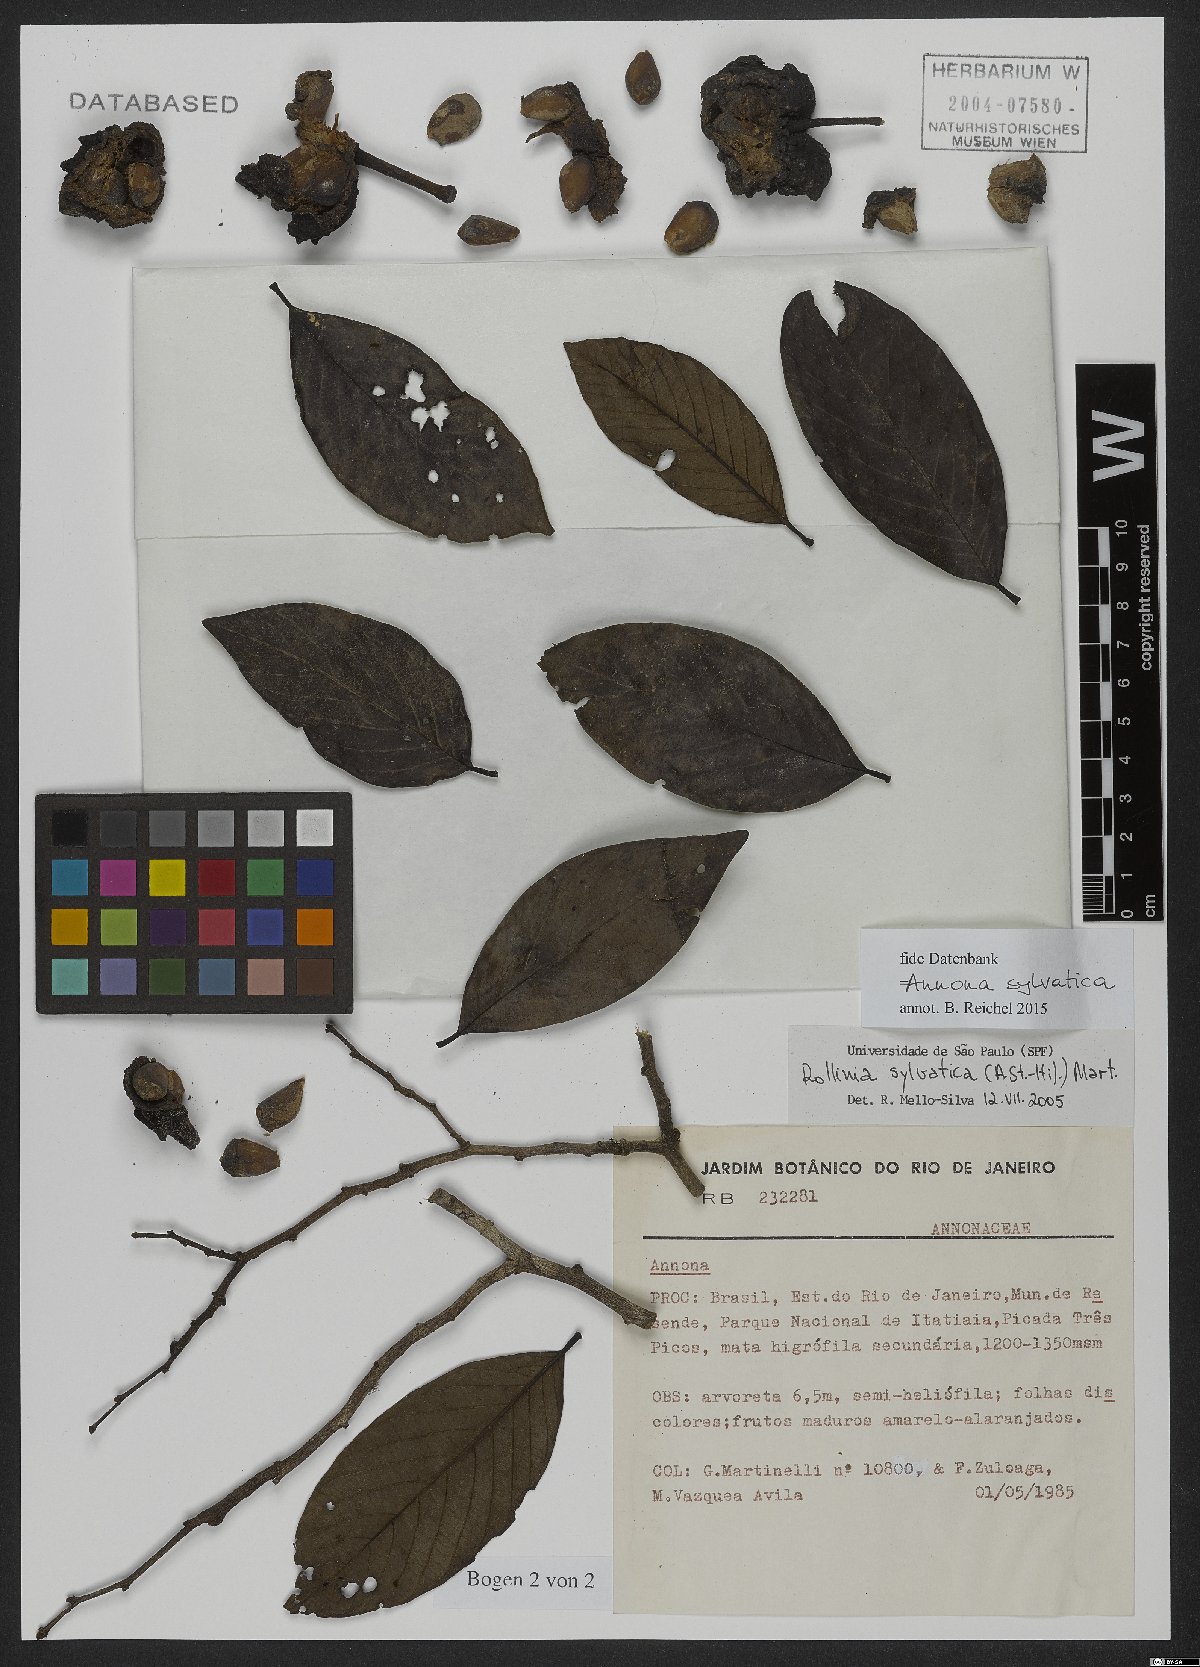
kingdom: Plantae
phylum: Tracheophyta
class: Magnoliopsida
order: Magnoliales
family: Annonaceae
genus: Annona
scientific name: Annona sylvatica
